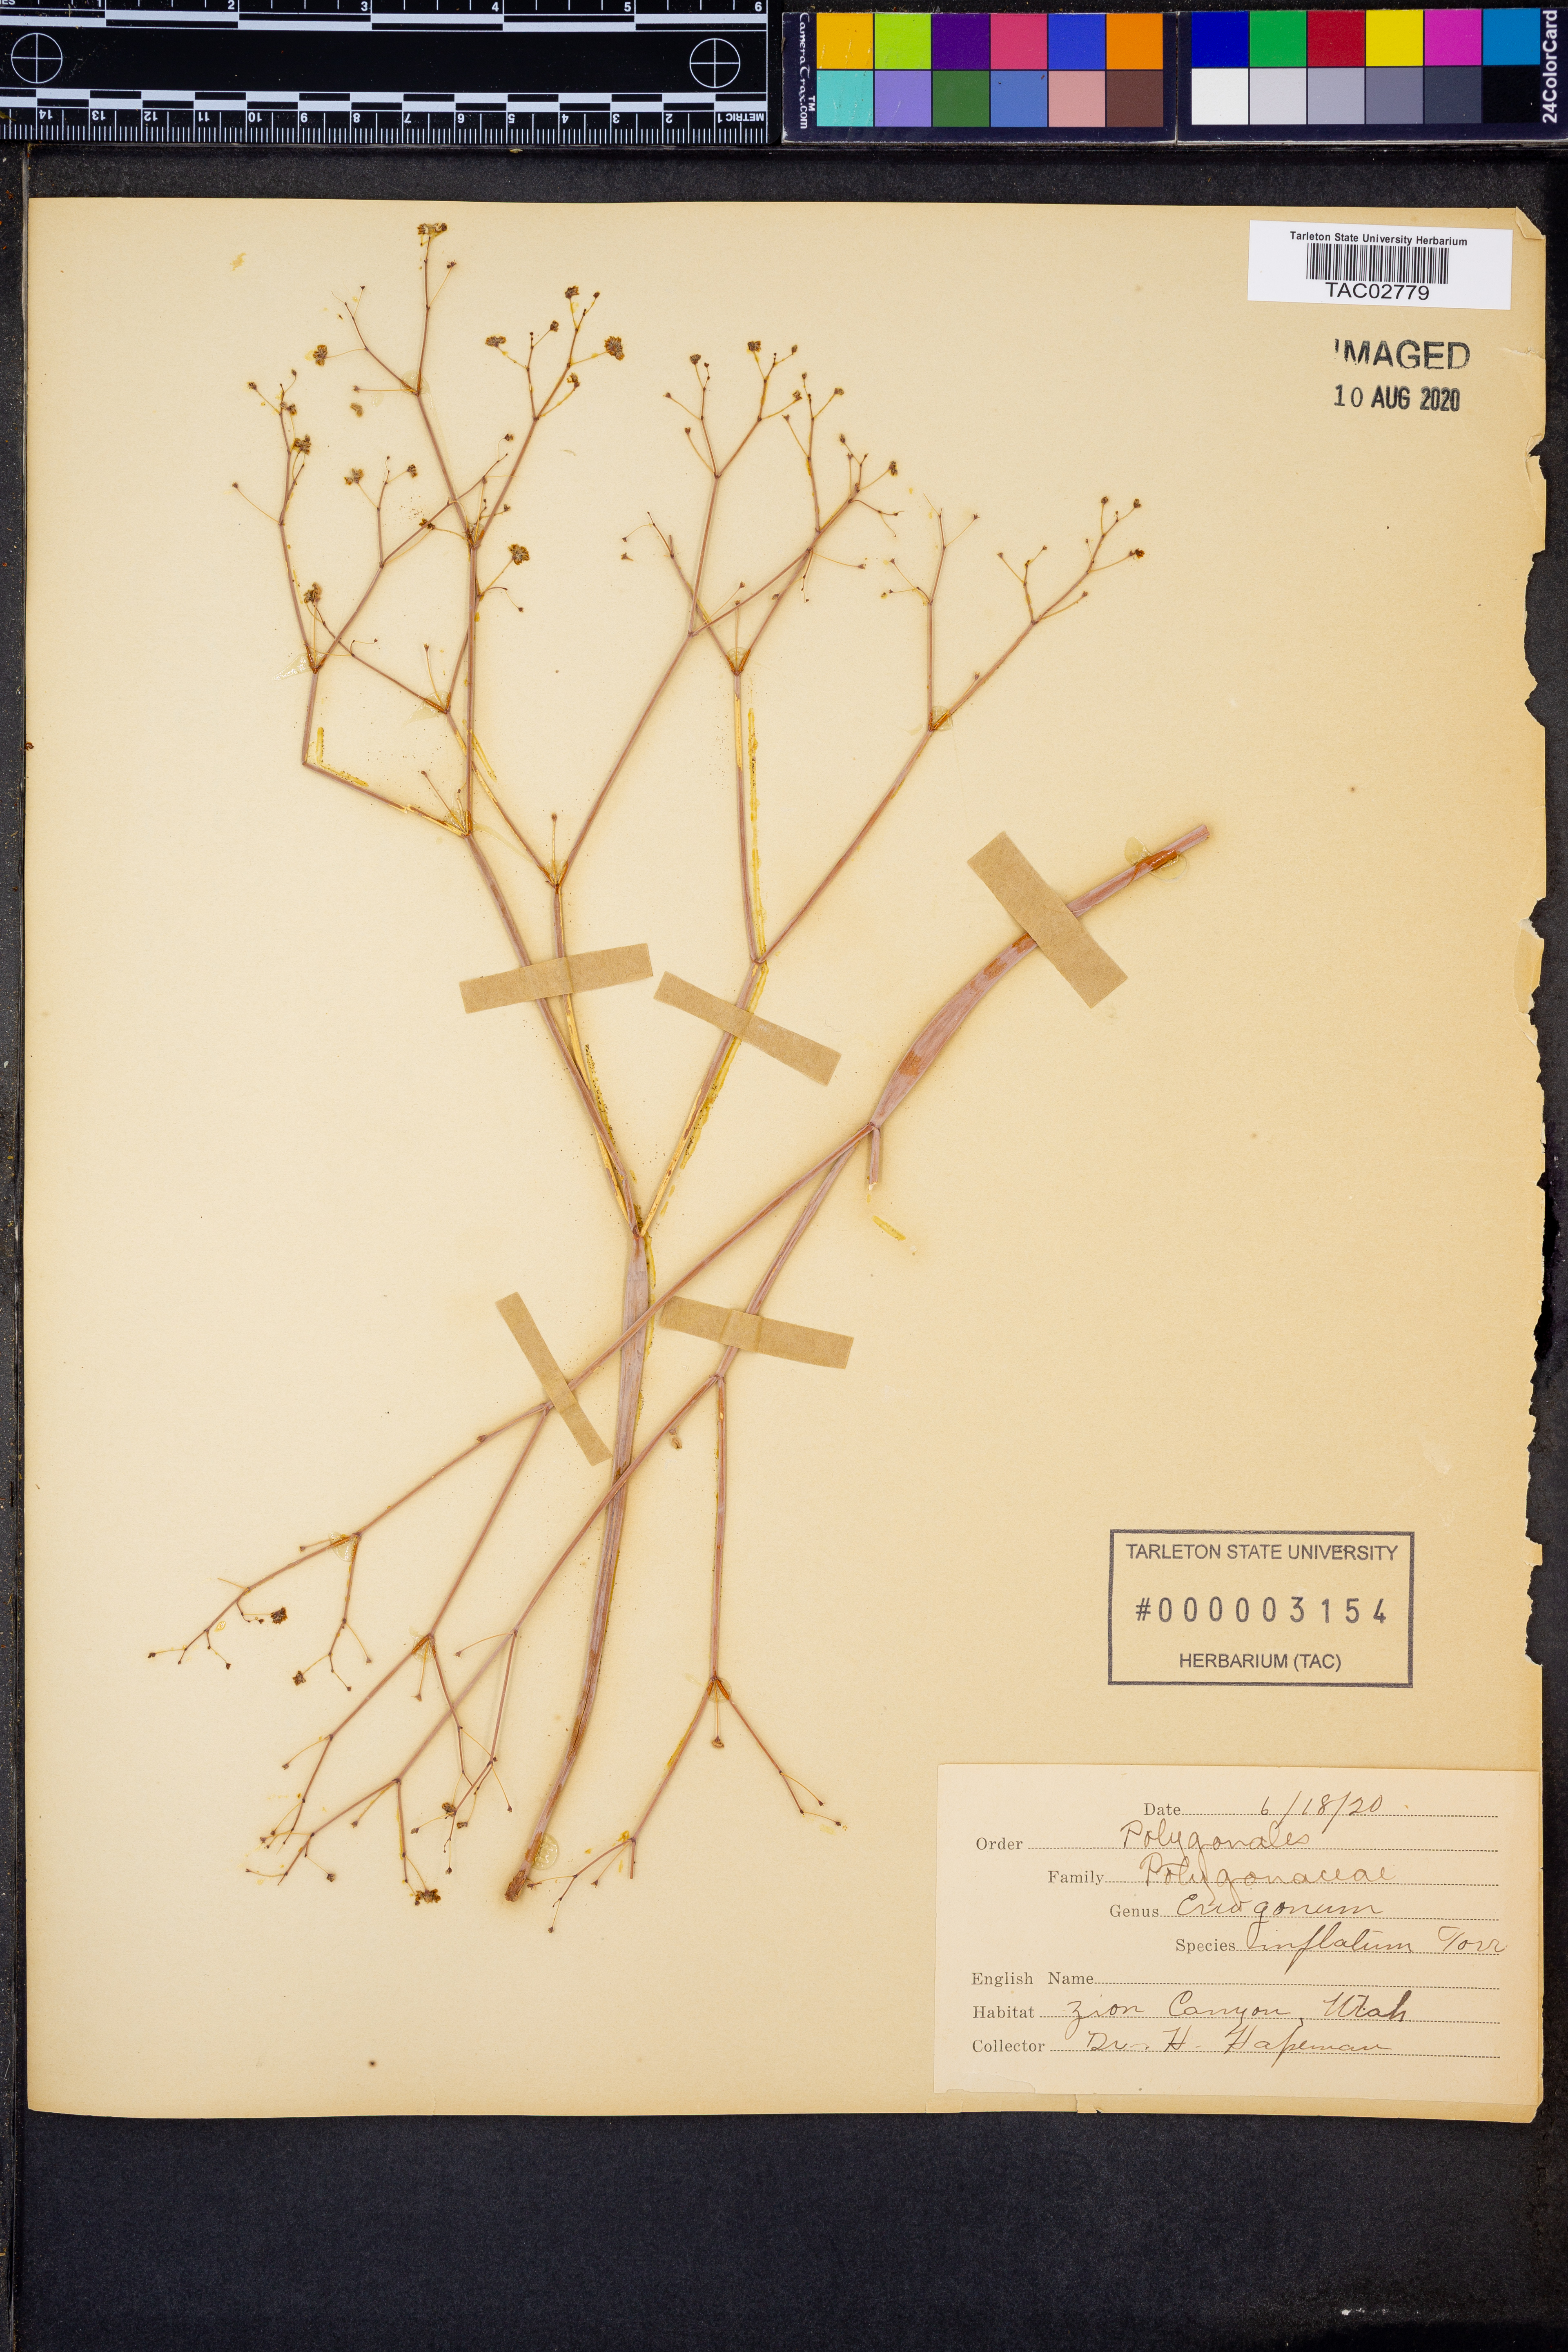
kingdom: Plantae
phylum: Tracheophyta
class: Magnoliopsida
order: Caryophyllales
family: Polygonaceae
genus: Eriogonum
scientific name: Eriogonum inflatum
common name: Desert trumpet
